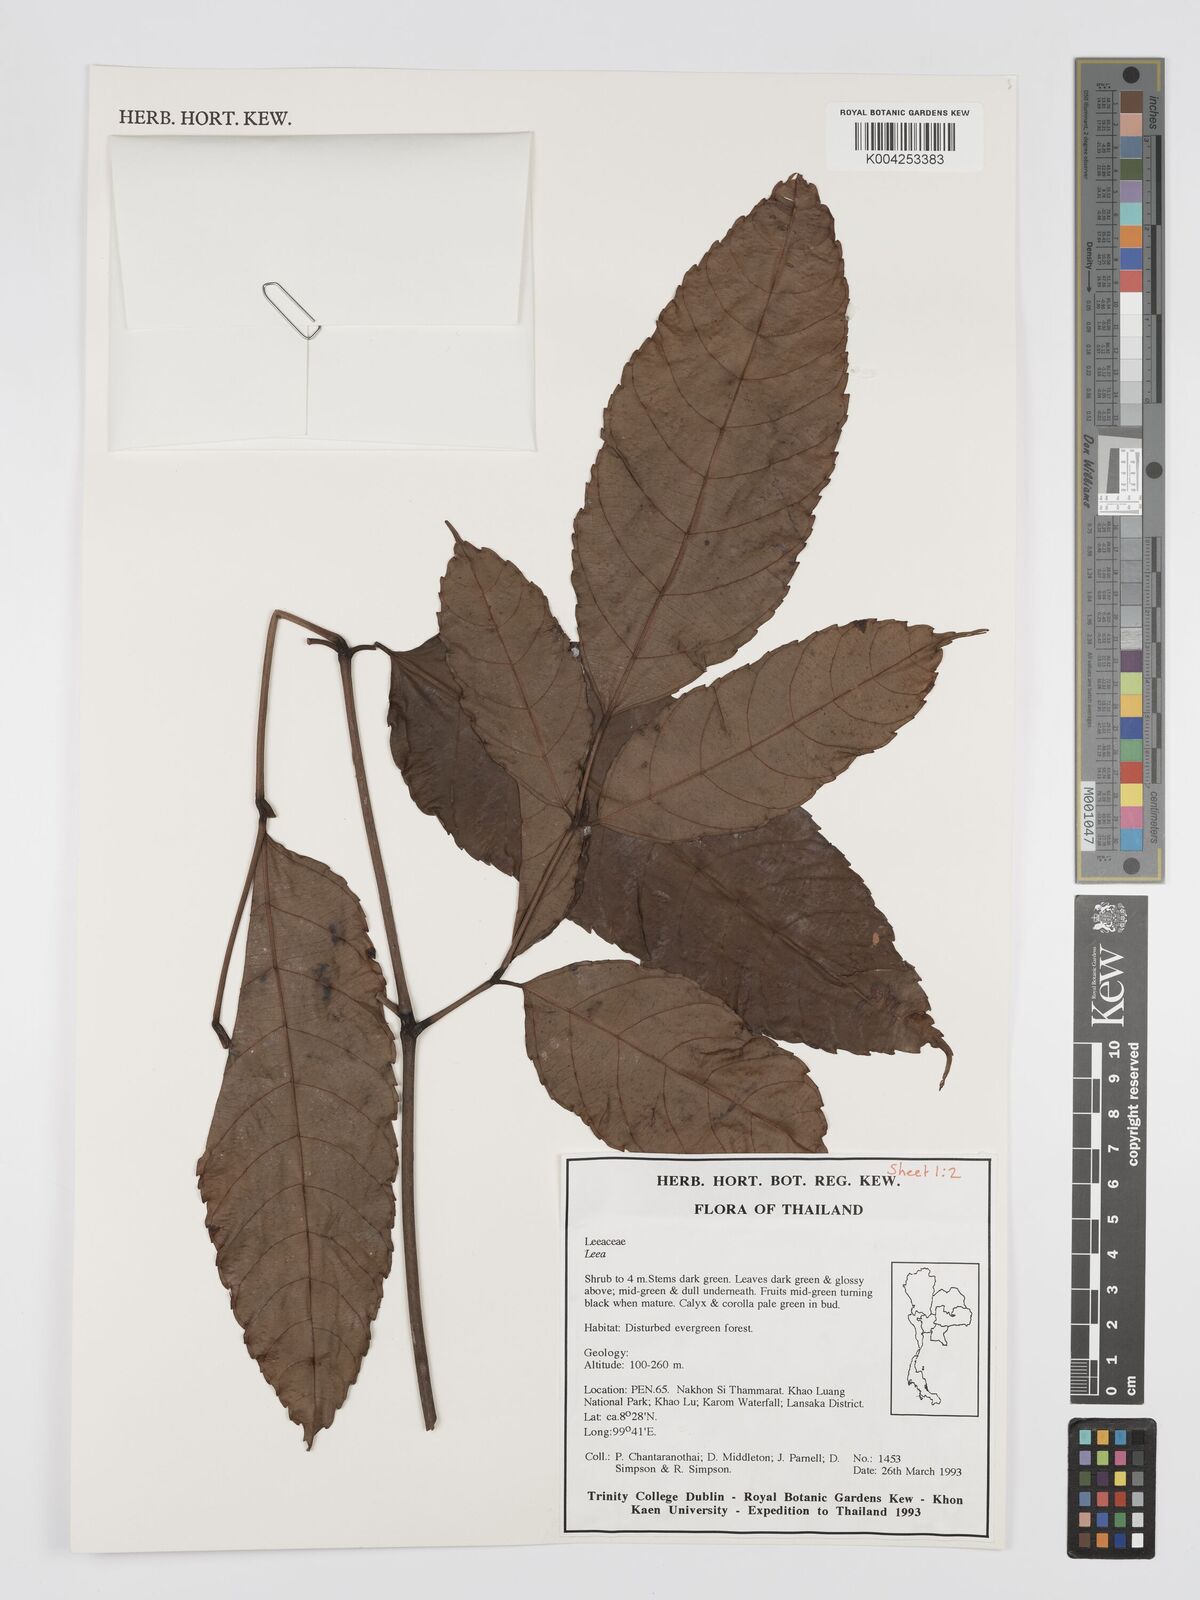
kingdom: Plantae
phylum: Tracheophyta
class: Magnoliopsida
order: Vitales
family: Vitaceae
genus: Leea
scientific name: Leea
